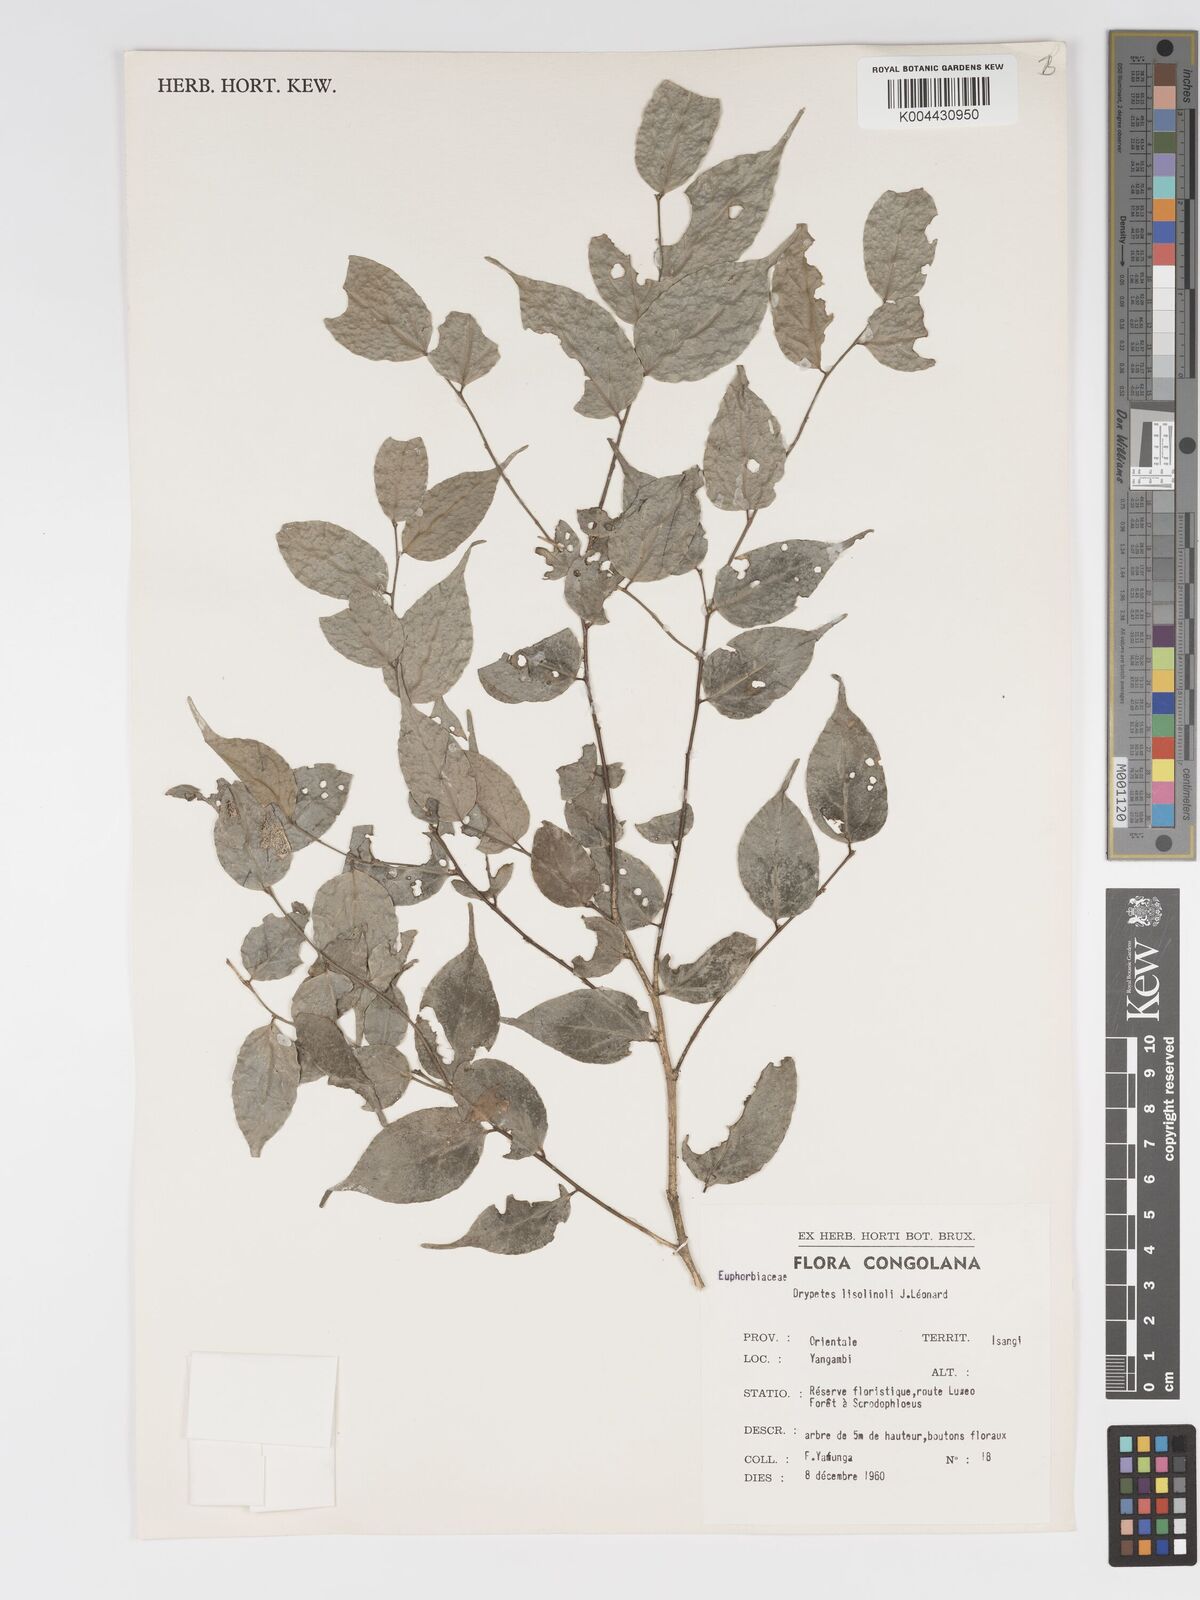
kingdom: Plantae
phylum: Tracheophyta
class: Magnoliopsida
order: Malpighiales
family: Putranjivaceae
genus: Drypetes
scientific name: Drypetes
